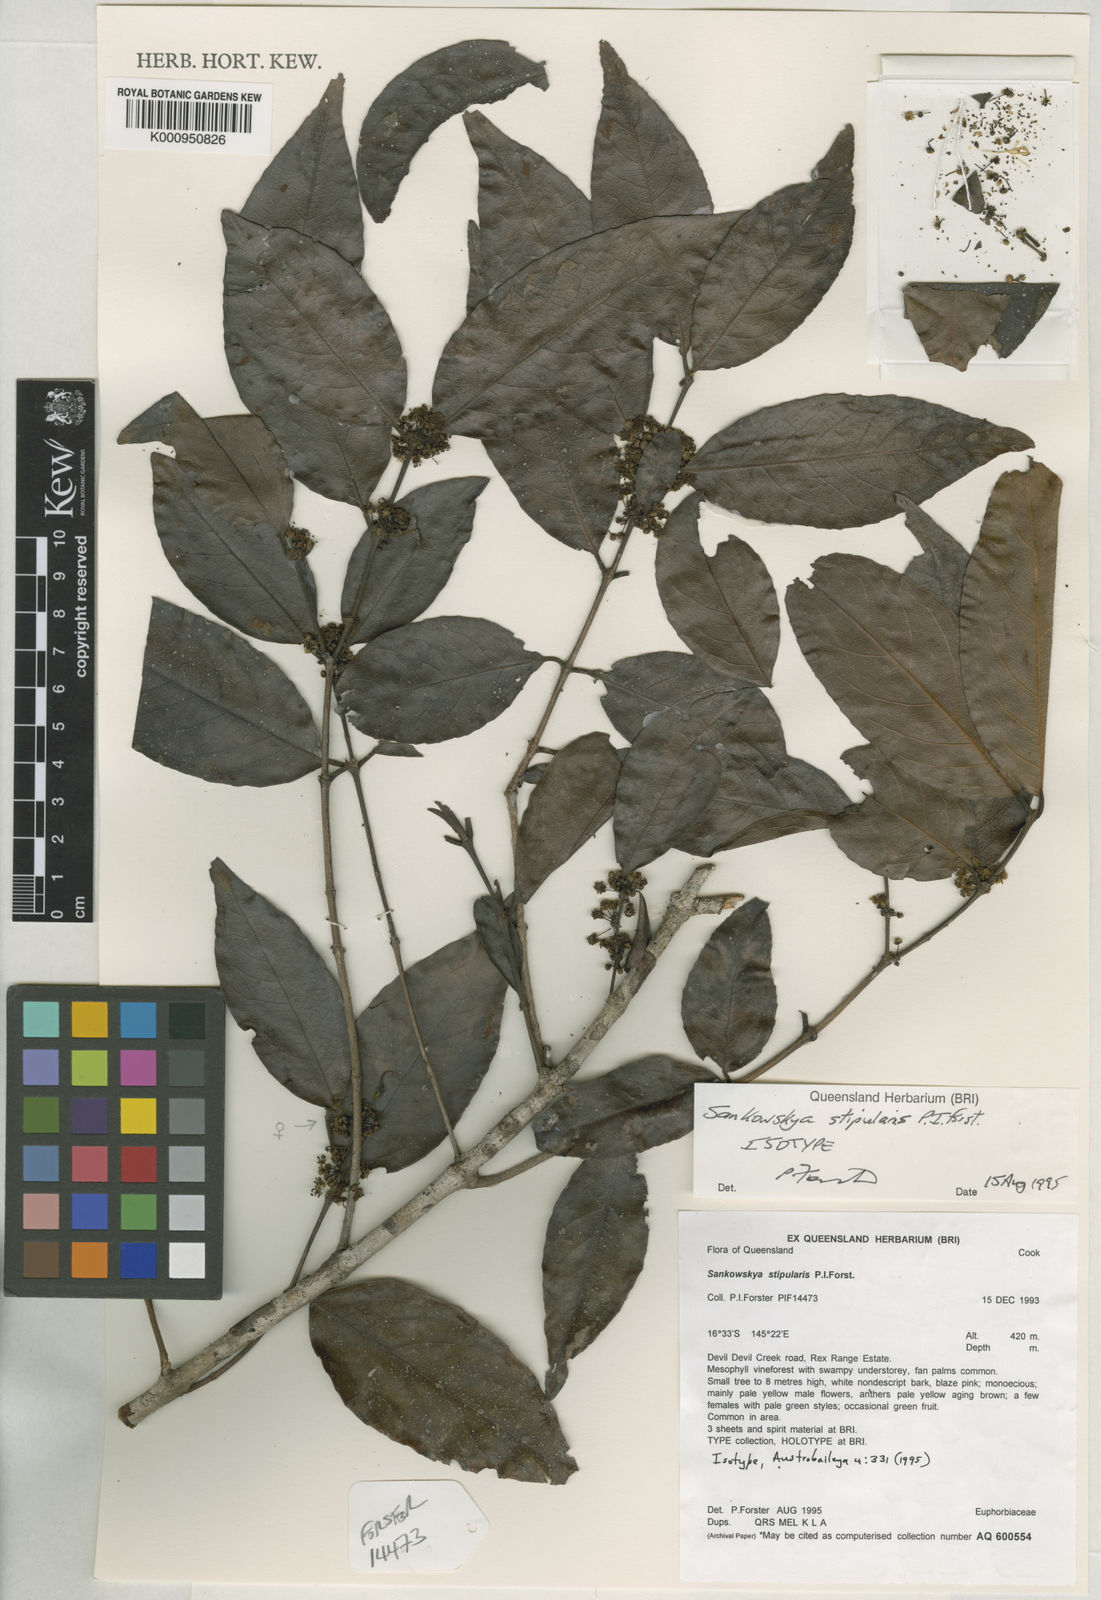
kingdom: Plantae
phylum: Tracheophyta
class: Magnoliopsida
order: Malpighiales
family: Picrodendraceae
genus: Sankowskya
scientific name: Sankowskya stipularis
